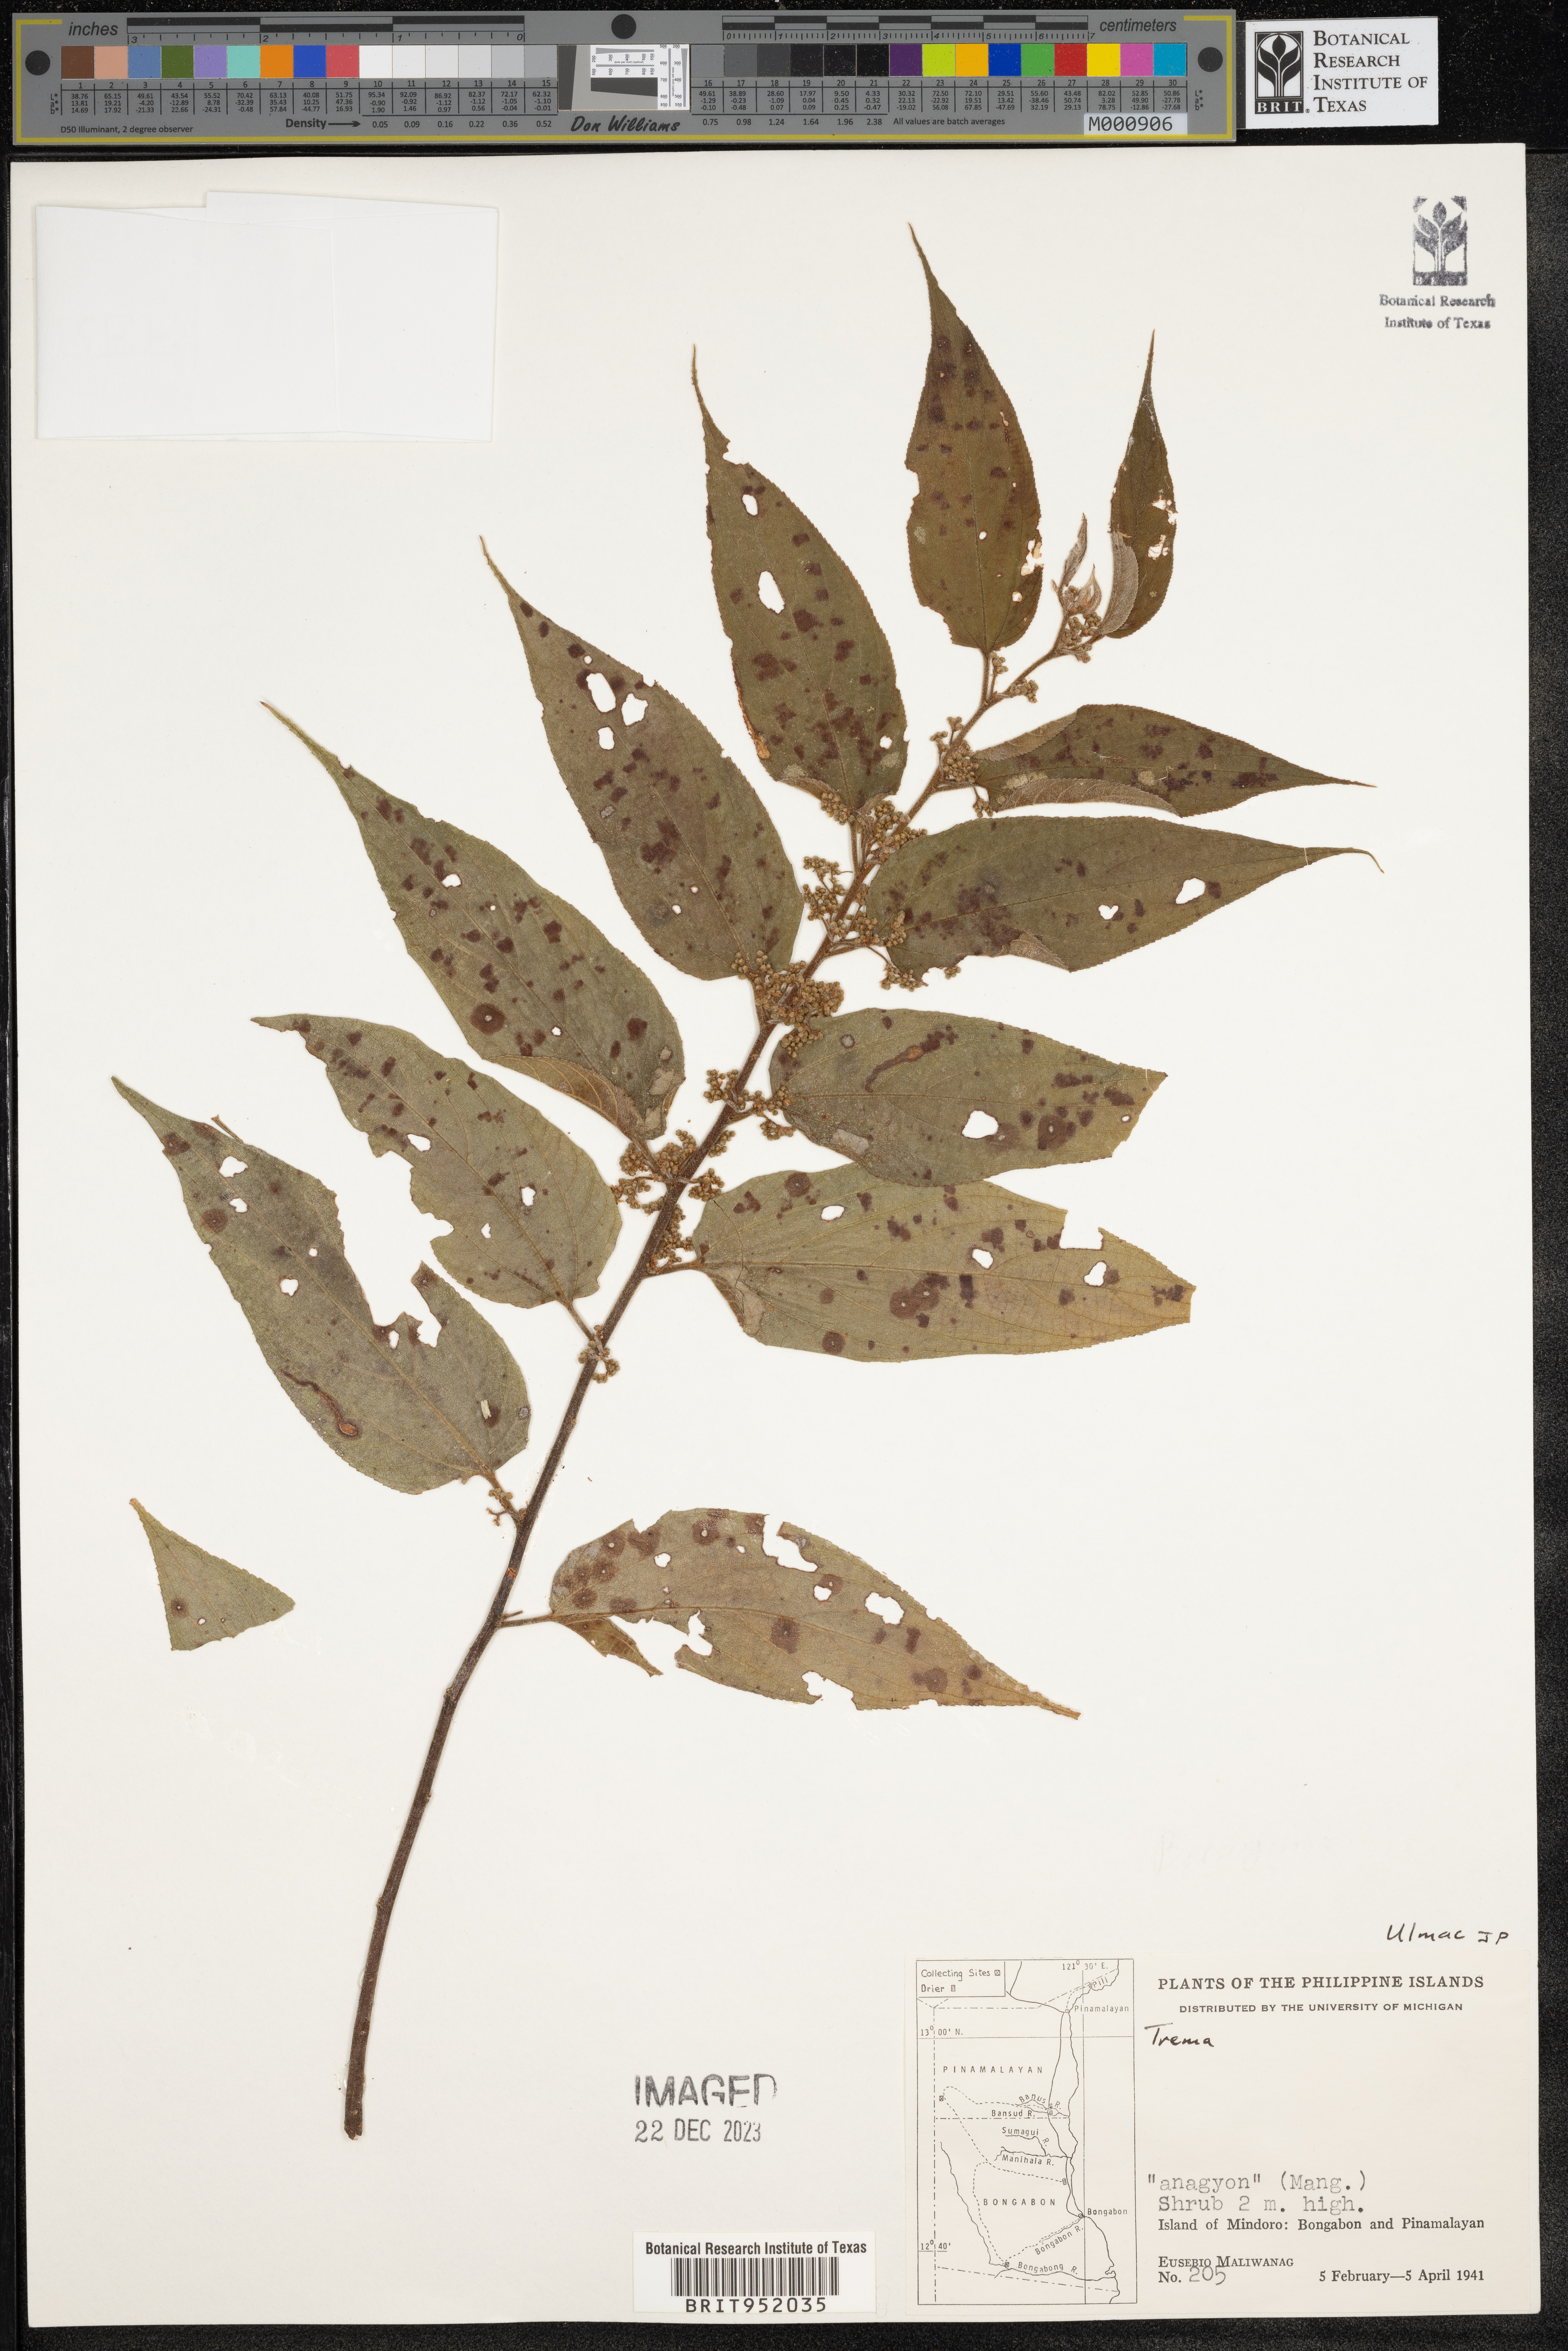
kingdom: Plantae
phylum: Tracheophyta
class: Magnoliopsida
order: Rosales
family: Cannabaceae
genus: Trema
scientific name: Trema
